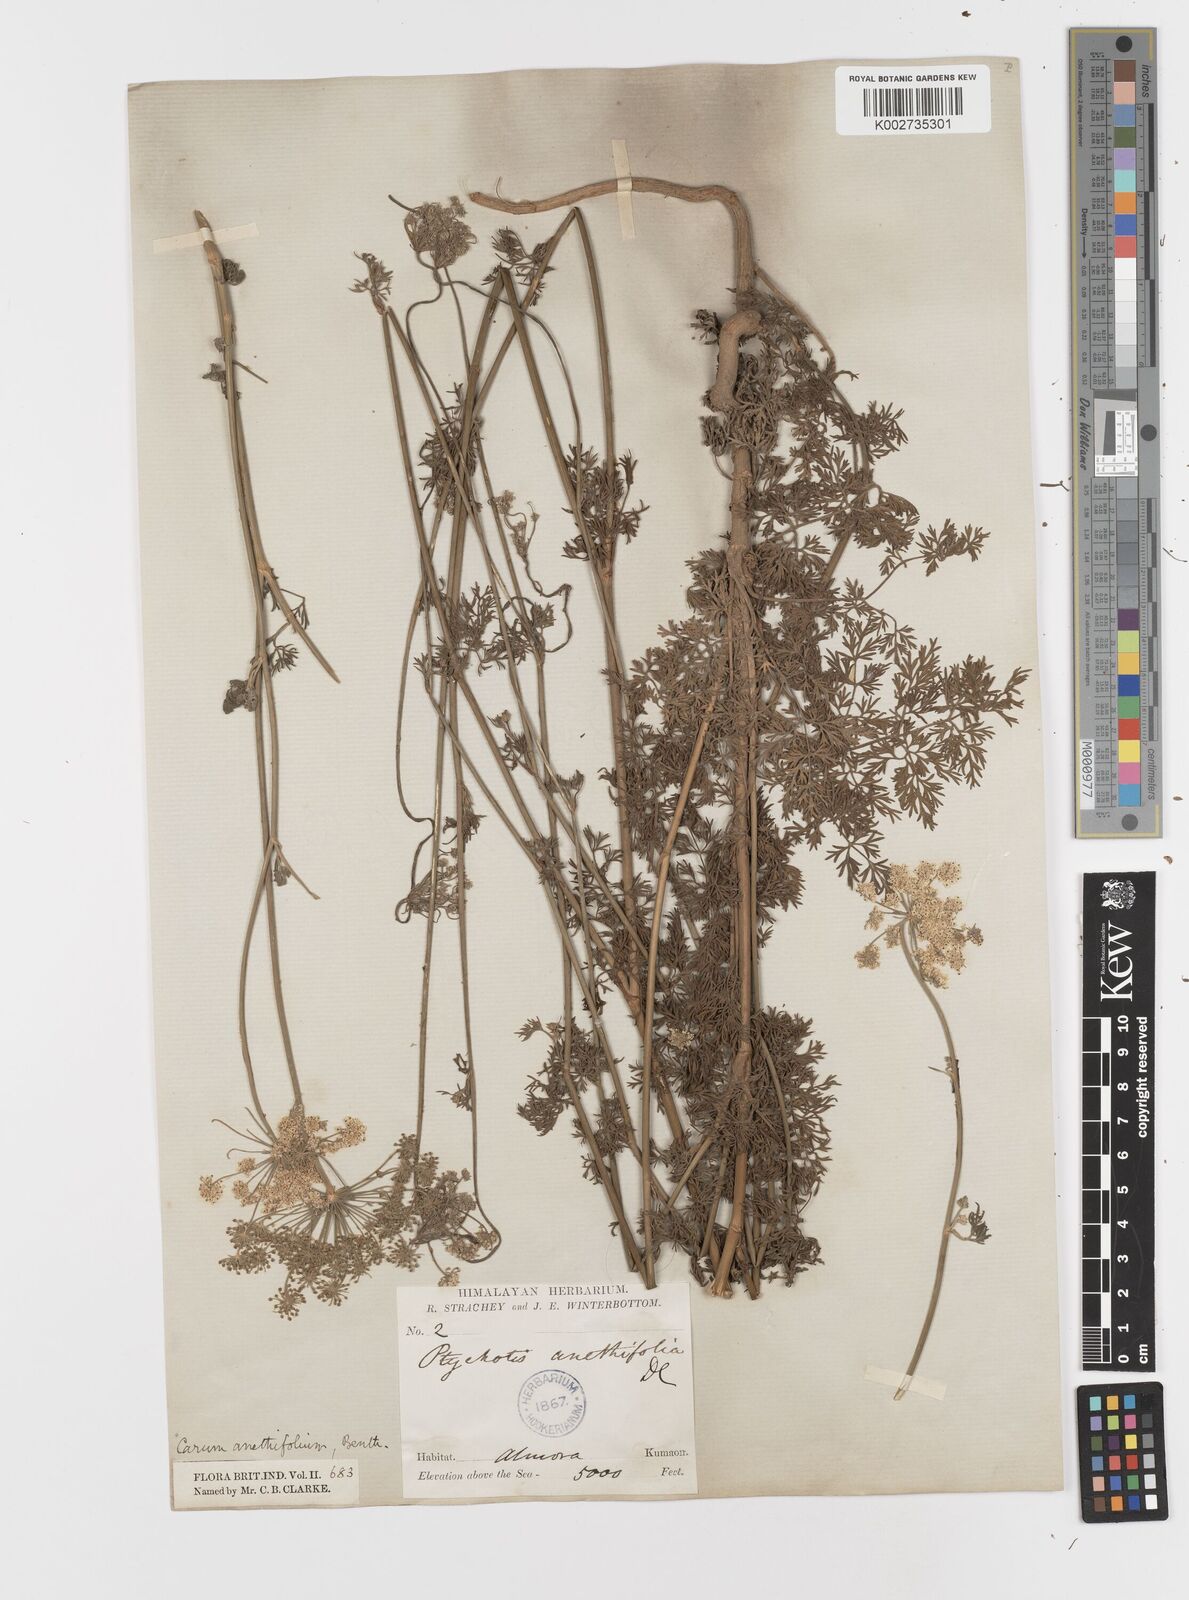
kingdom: Plantae
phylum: Tracheophyta
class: Magnoliopsida
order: Apiales
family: Apiaceae
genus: Psammogeton
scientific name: Psammogeton anethifolium
